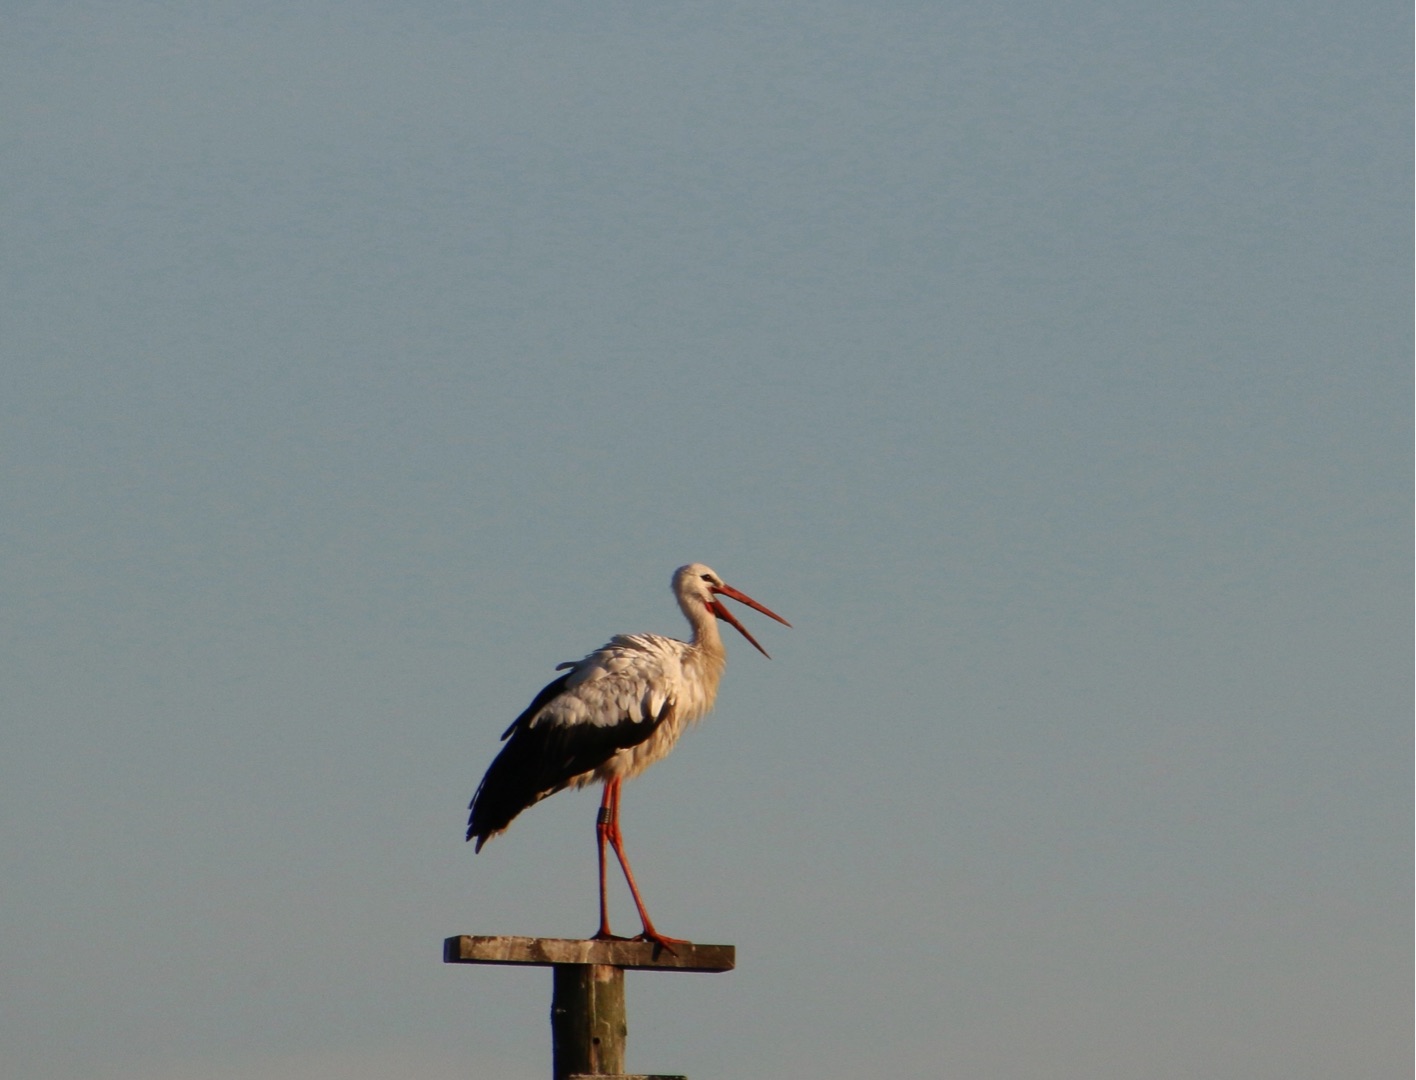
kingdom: Animalia
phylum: Chordata
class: Aves
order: Ciconiiformes
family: Ciconiidae
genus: Ciconia
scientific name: Ciconia ciconia
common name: Hvid stork
